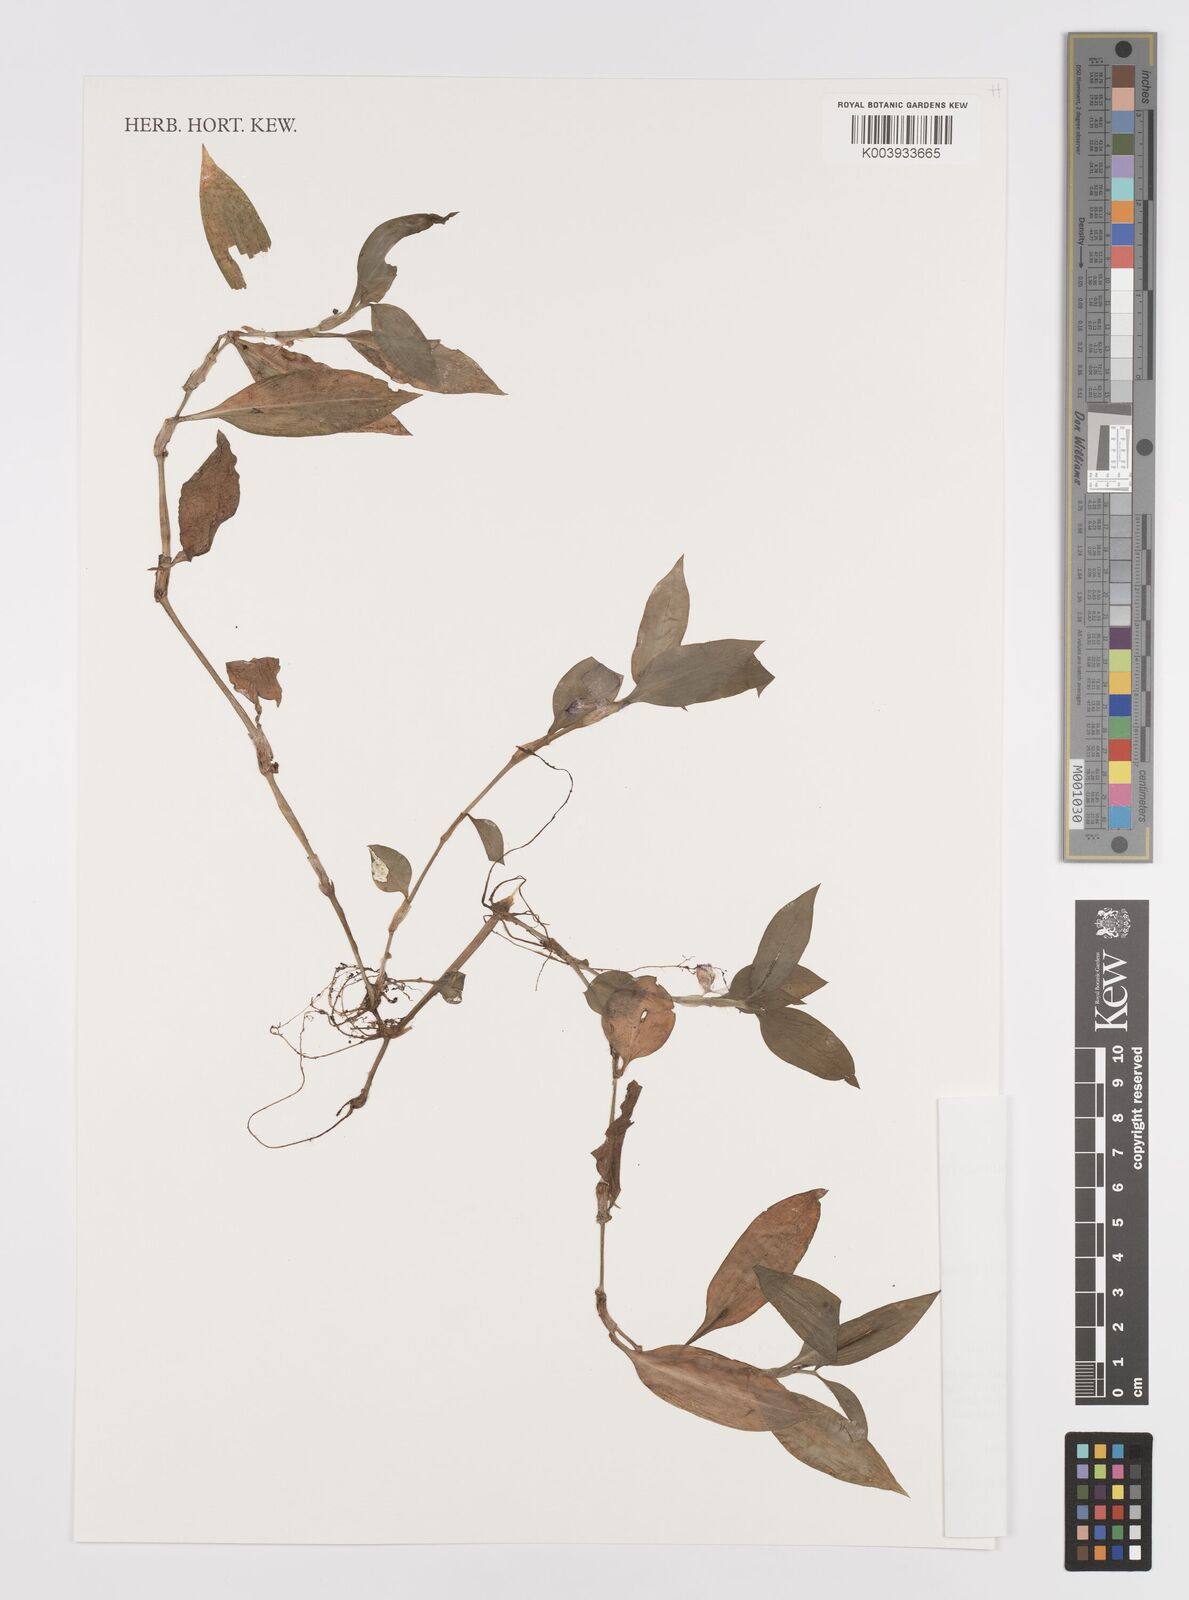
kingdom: Plantae
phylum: Tracheophyta
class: Liliopsida
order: Commelinales
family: Commelinaceae
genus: Coleotrype
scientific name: Coleotrype goudotii
